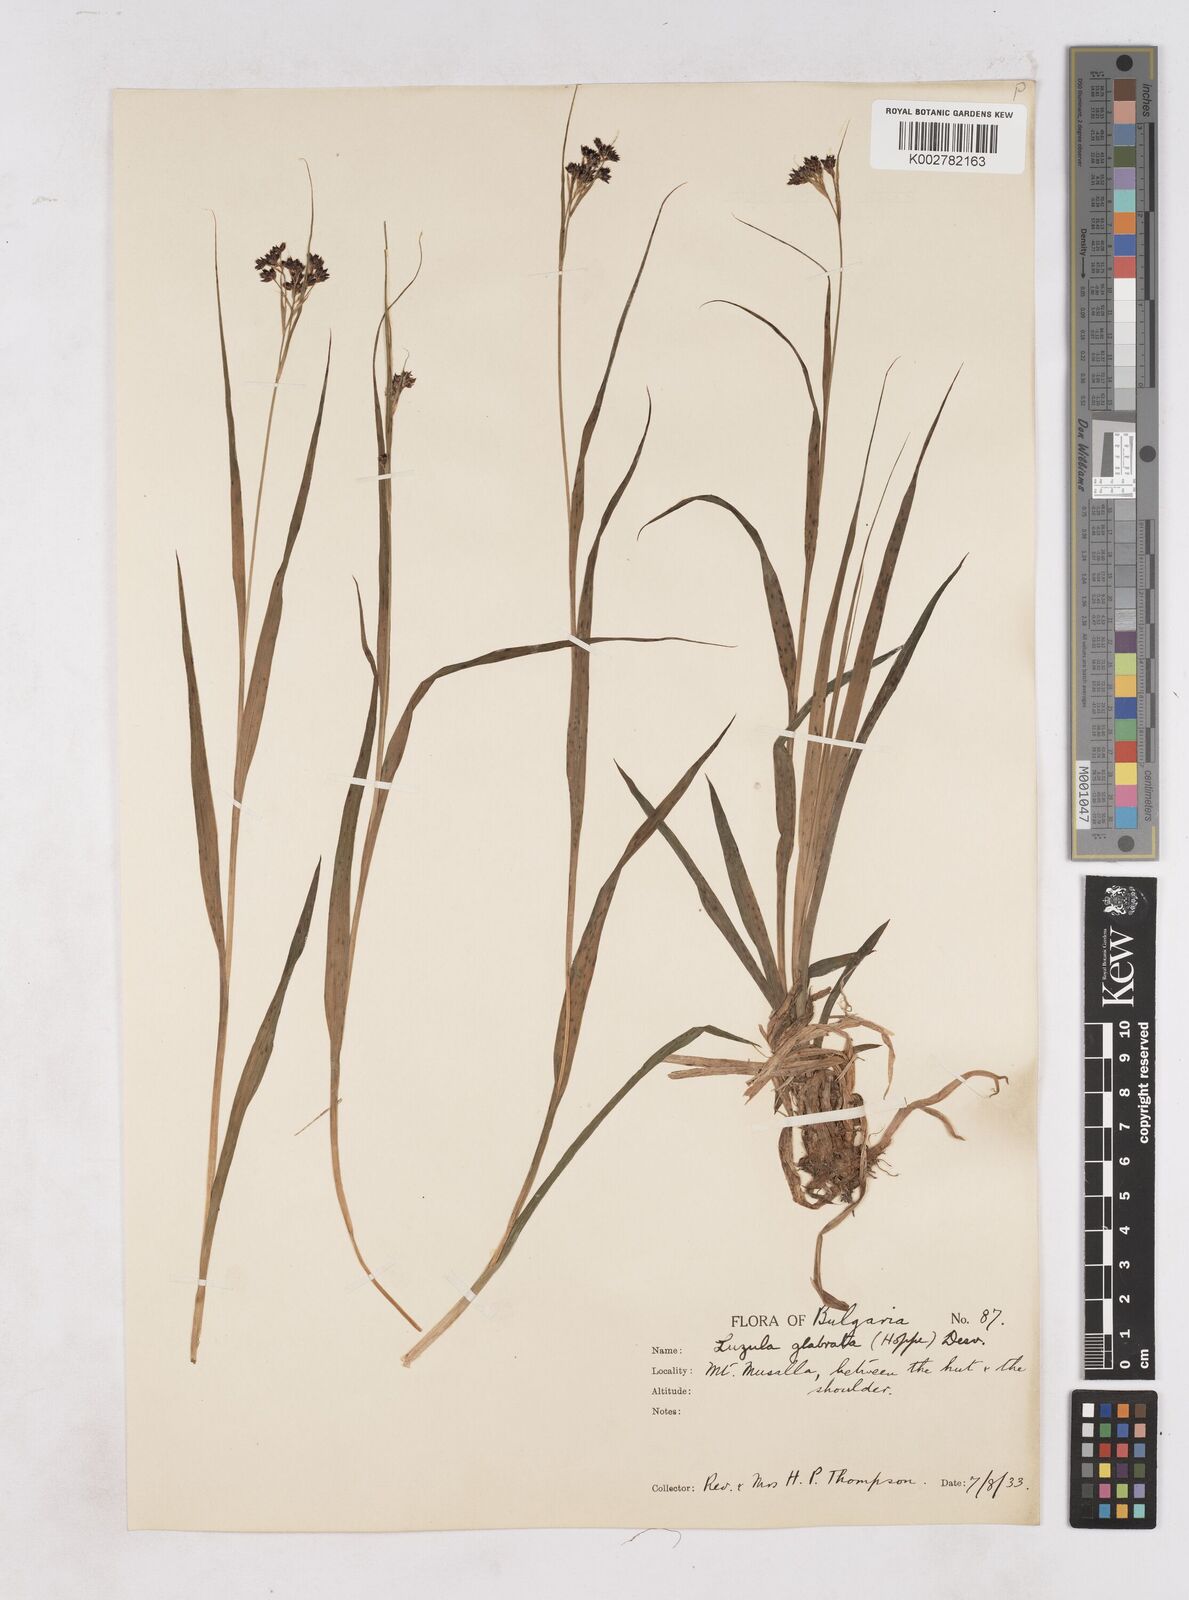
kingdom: Plantae
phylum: Tracheophyta
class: Liliopsida
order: Poales
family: Juncaceae
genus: Luzula
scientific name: Luzula glabrata
